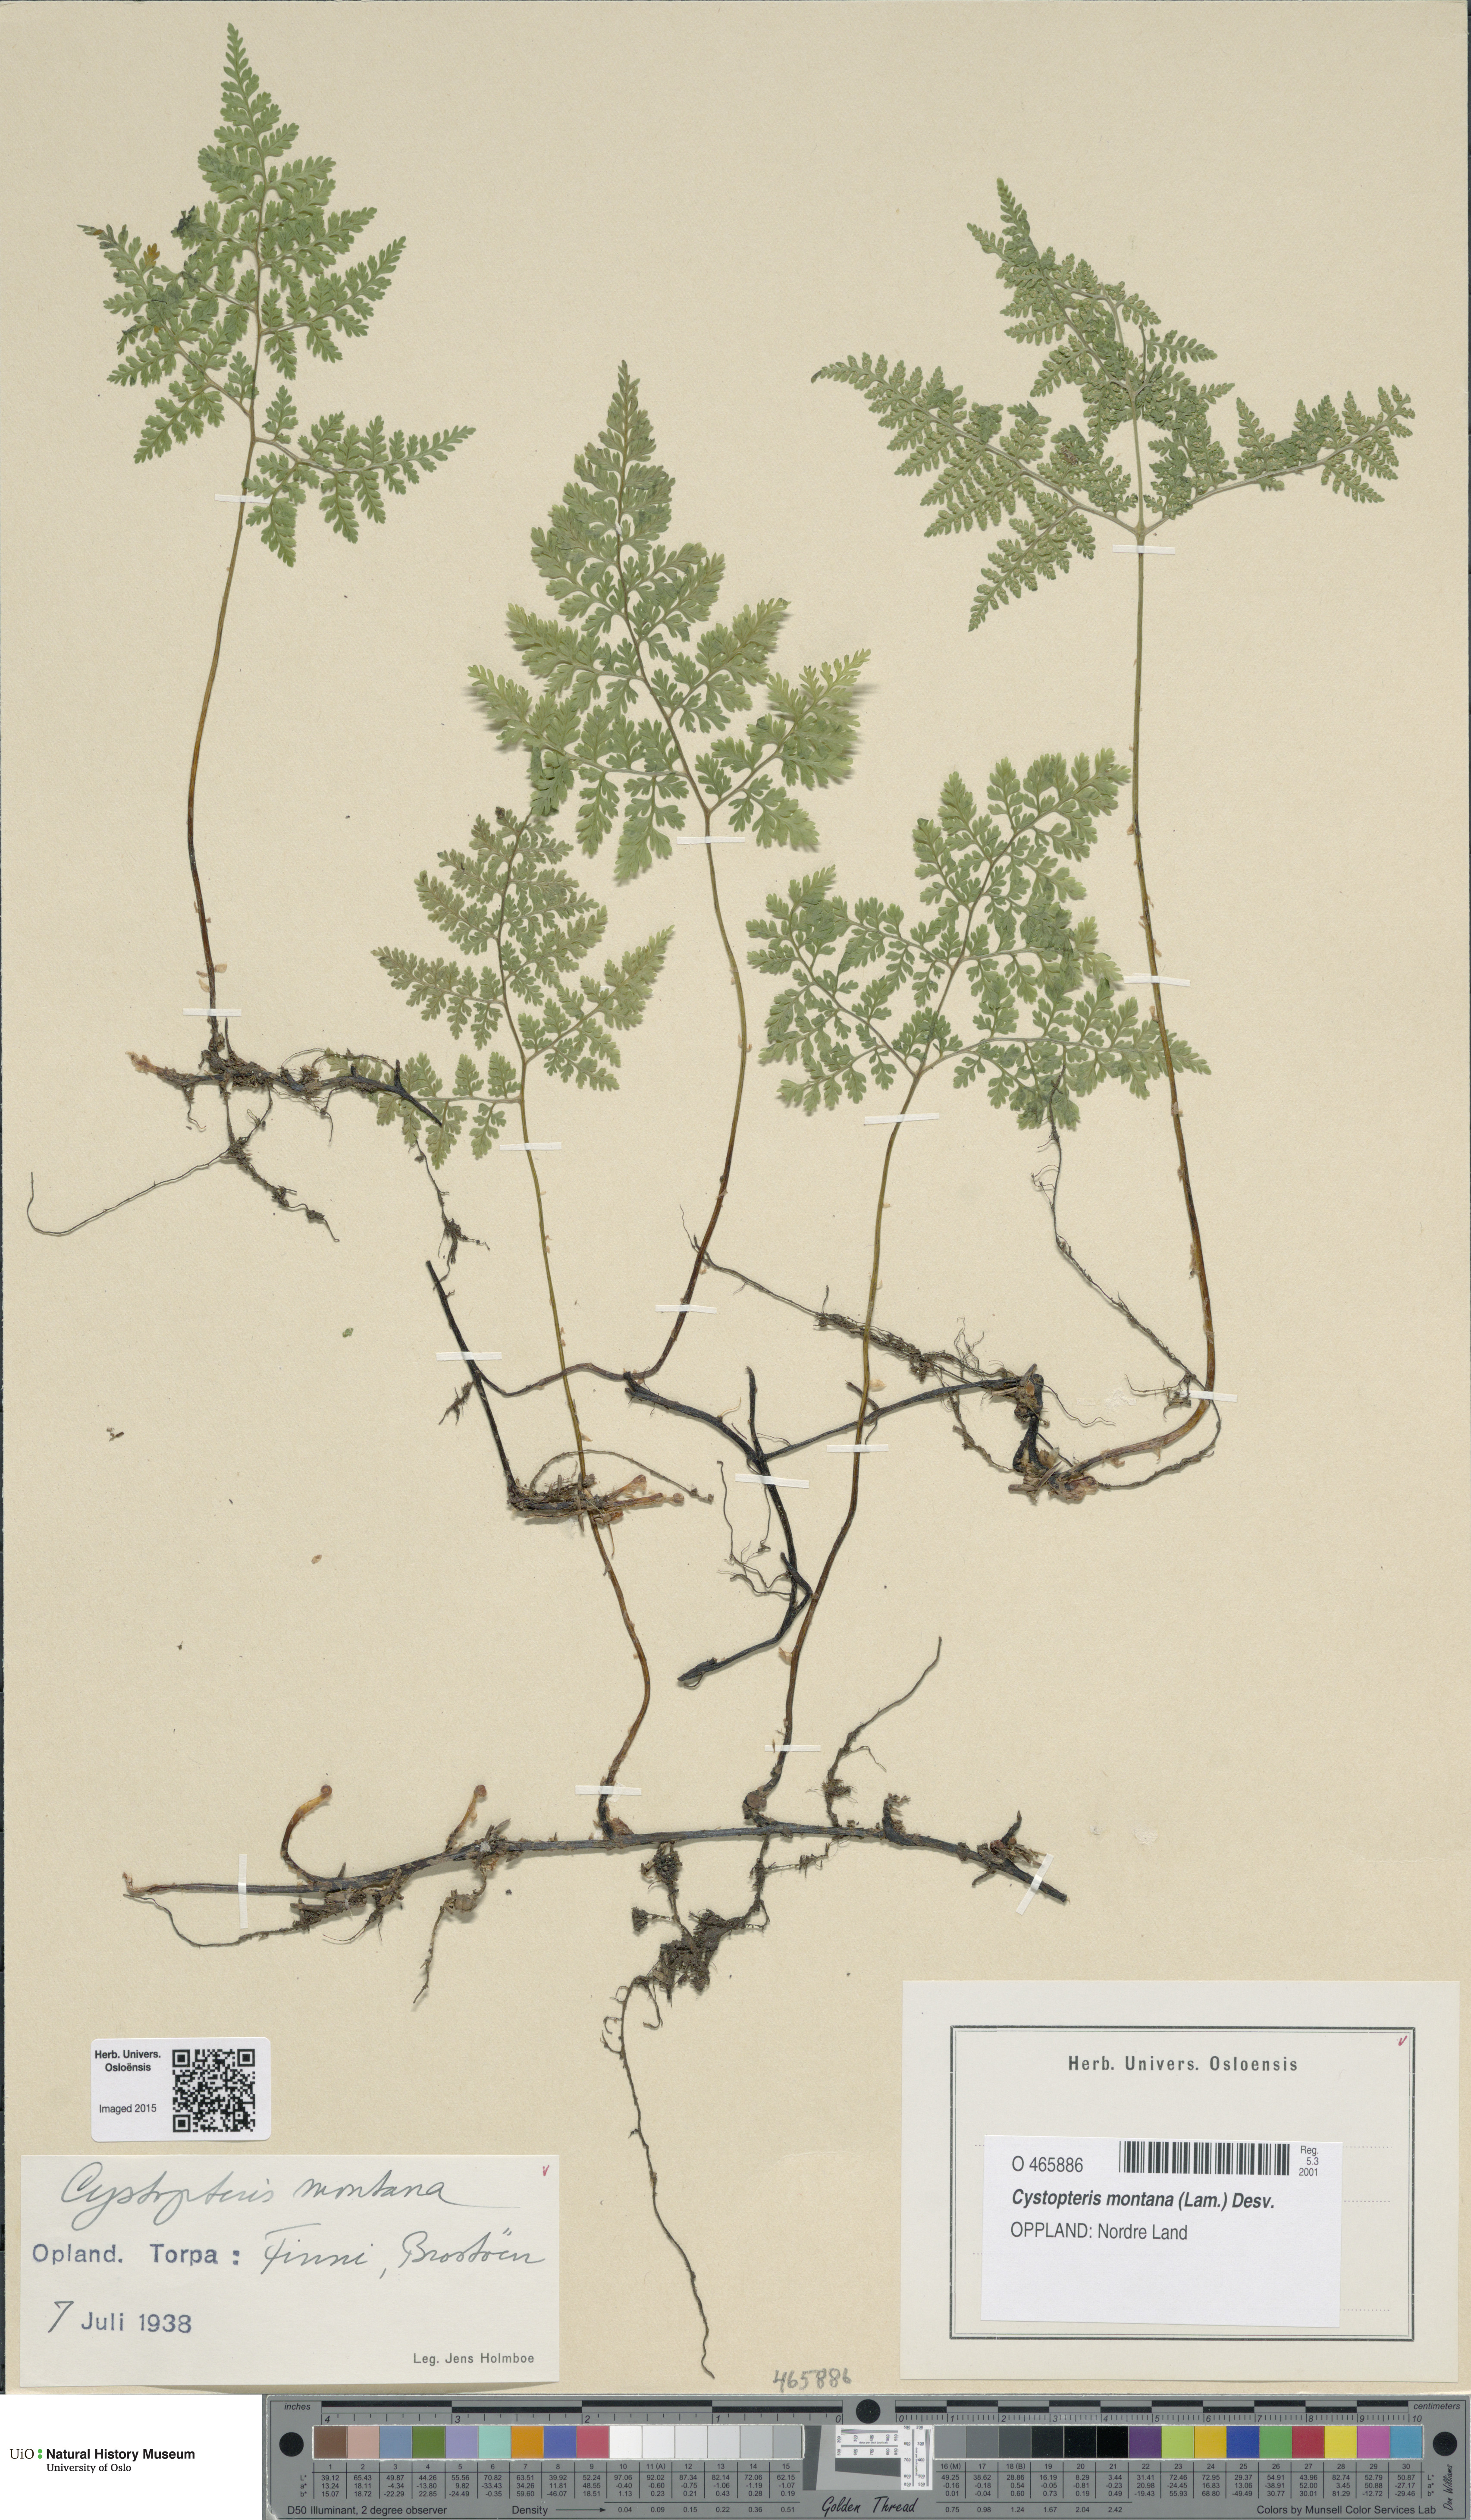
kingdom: Plantae
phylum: Tracheophyta
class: Polypodiopsida
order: Polypodiales
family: Cystopteridaceae
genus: Cystopteris
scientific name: Cystopteris montana
